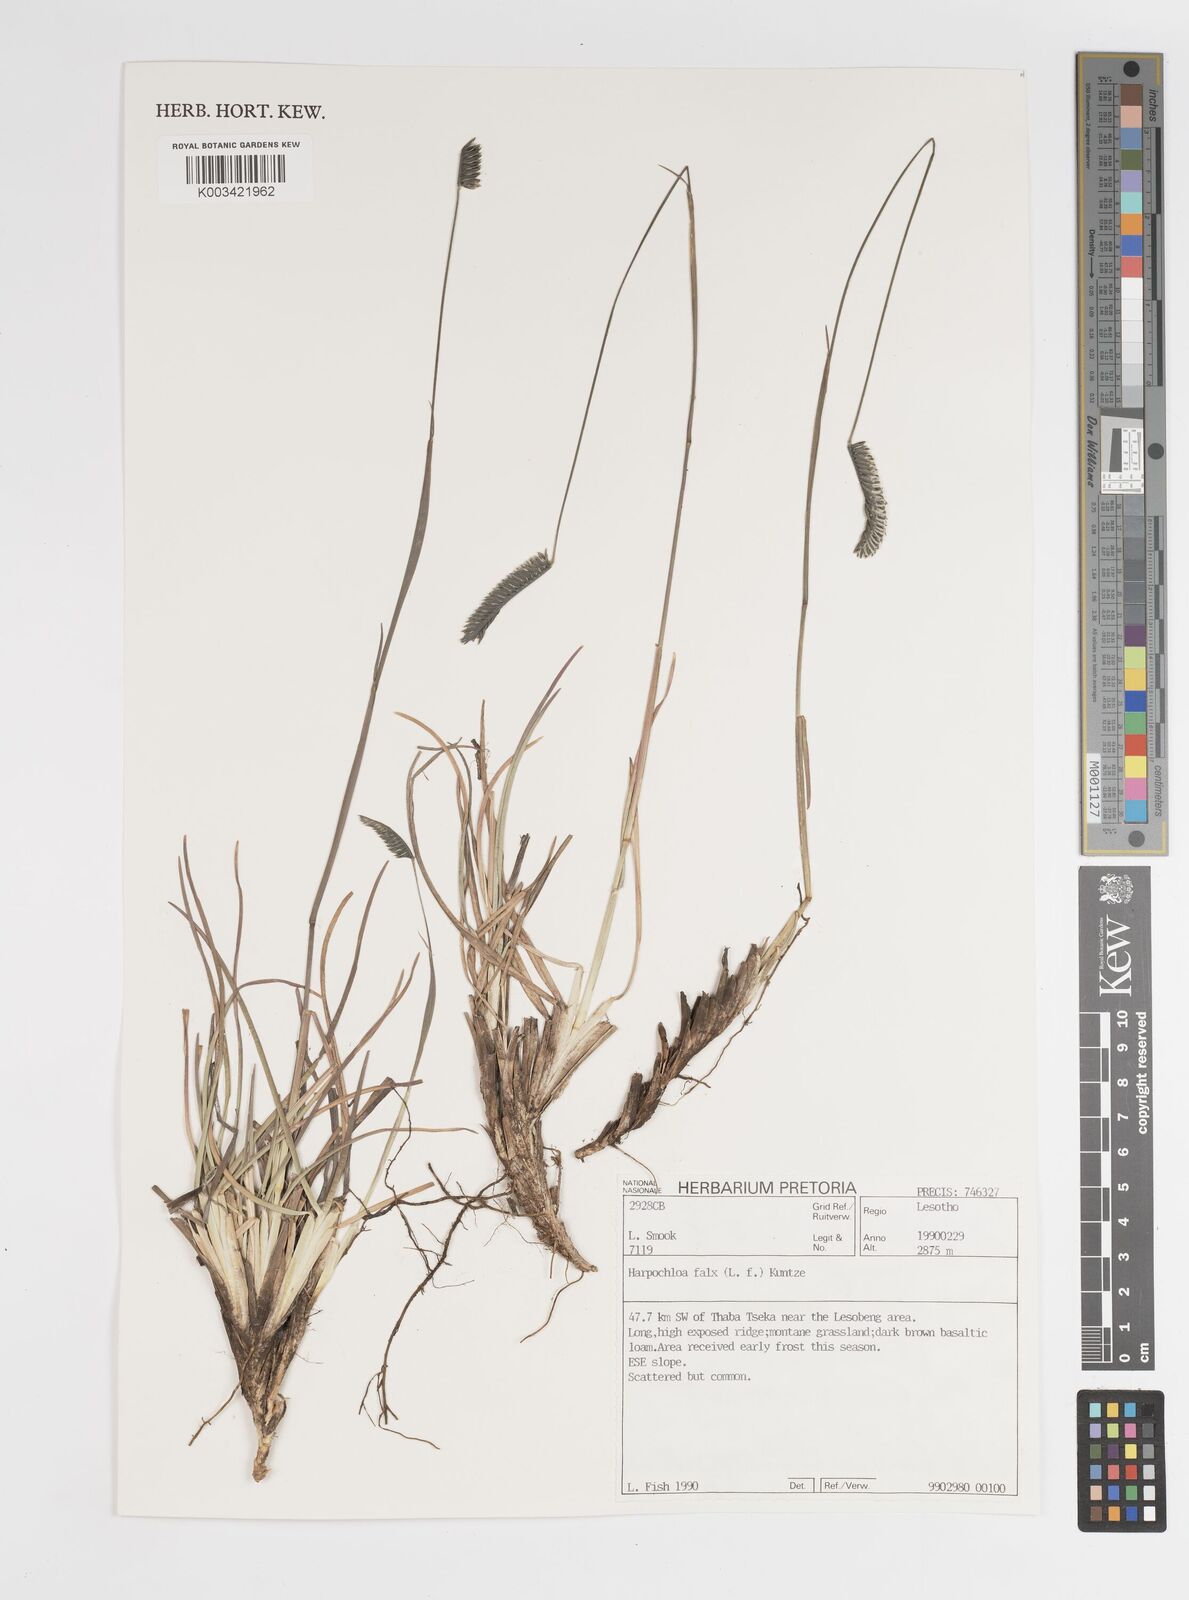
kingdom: Plantae
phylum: Tracheophyta
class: Liliopsida
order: Poales
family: Poaceae
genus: Harpochloa
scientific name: Harpochloa falx
